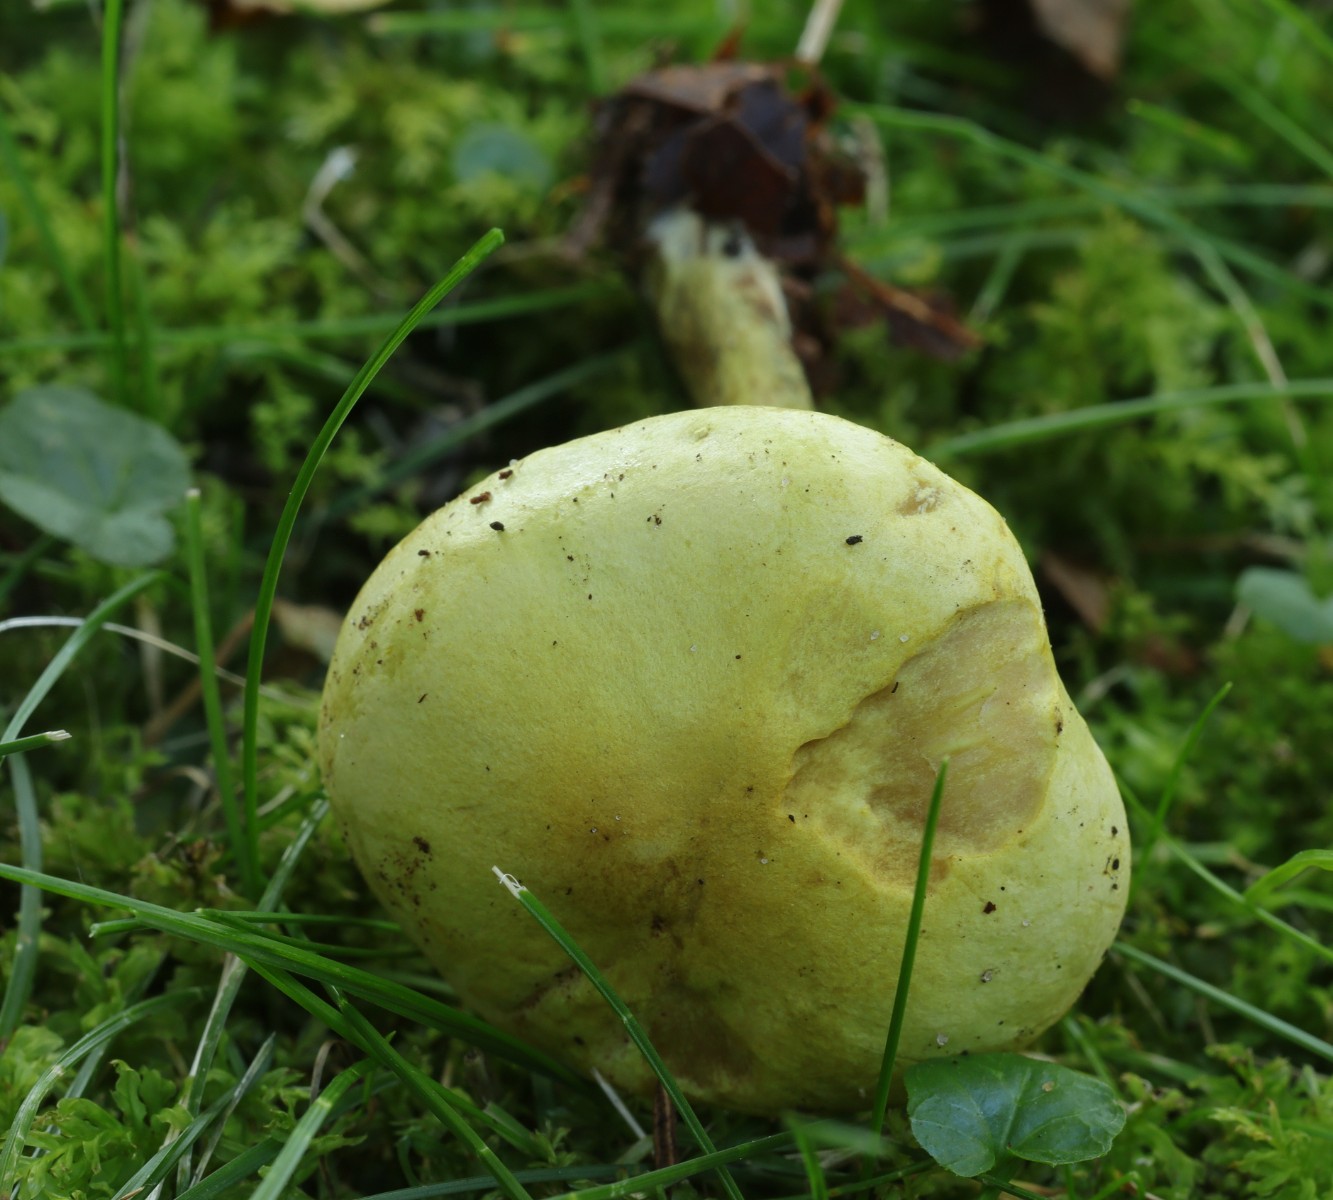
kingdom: Fungi
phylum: Basidiomycota
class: Agaricomycetes
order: Agaricales
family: Tricholomataceae
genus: Tricholoma
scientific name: Tricholoma sulphureum
